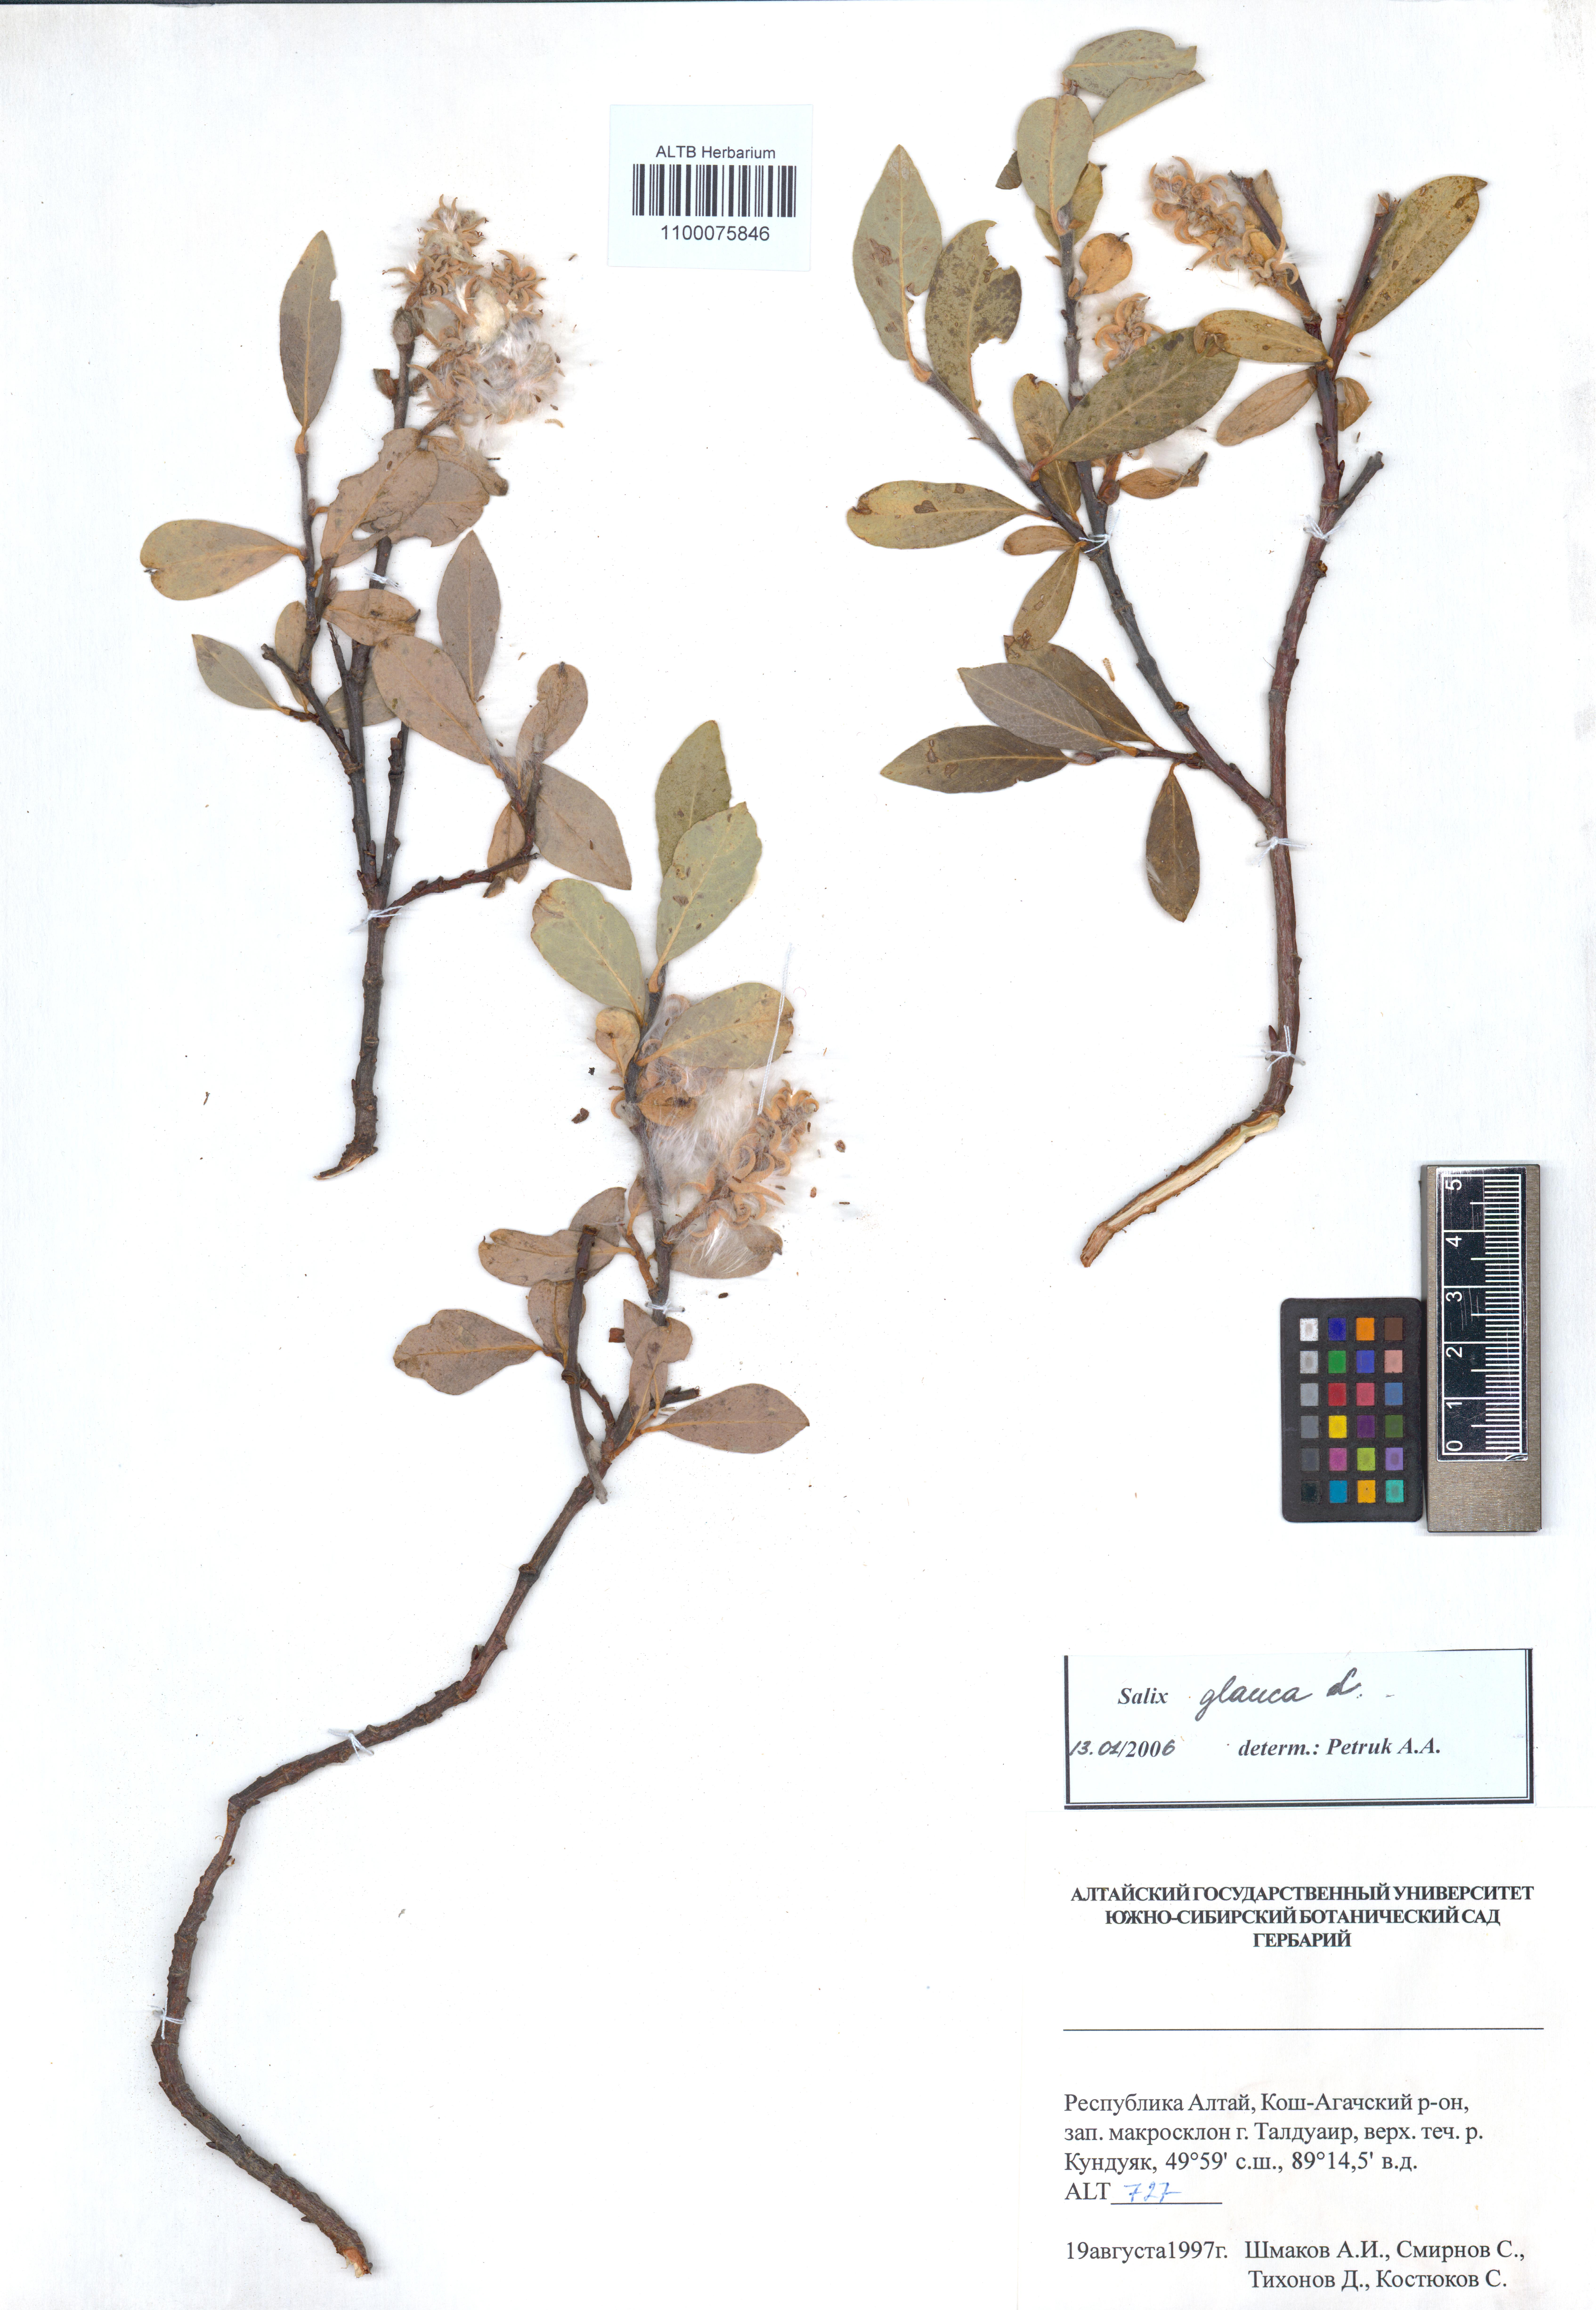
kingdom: Plantae
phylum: Tracheophyta
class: Magnoliopsida
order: Malpighiales
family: Salicaceae
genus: Salix
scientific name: Salix glauca
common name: Glaucous willow
